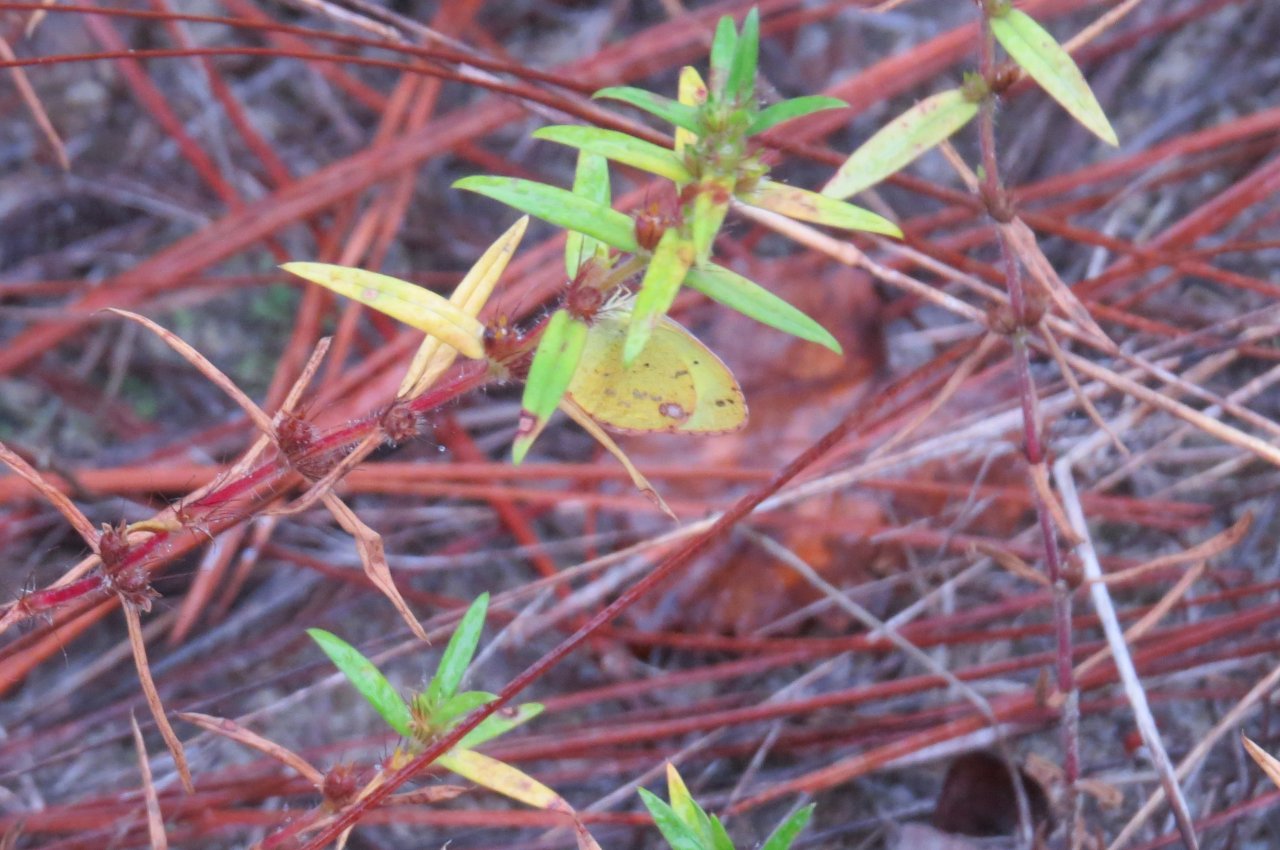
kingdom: Animalia
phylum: Arthropoda
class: Insecta
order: Lepidoptera
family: Pieridae
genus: Pyrisitia
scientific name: Pyrisitia lisa
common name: Little Yellow
